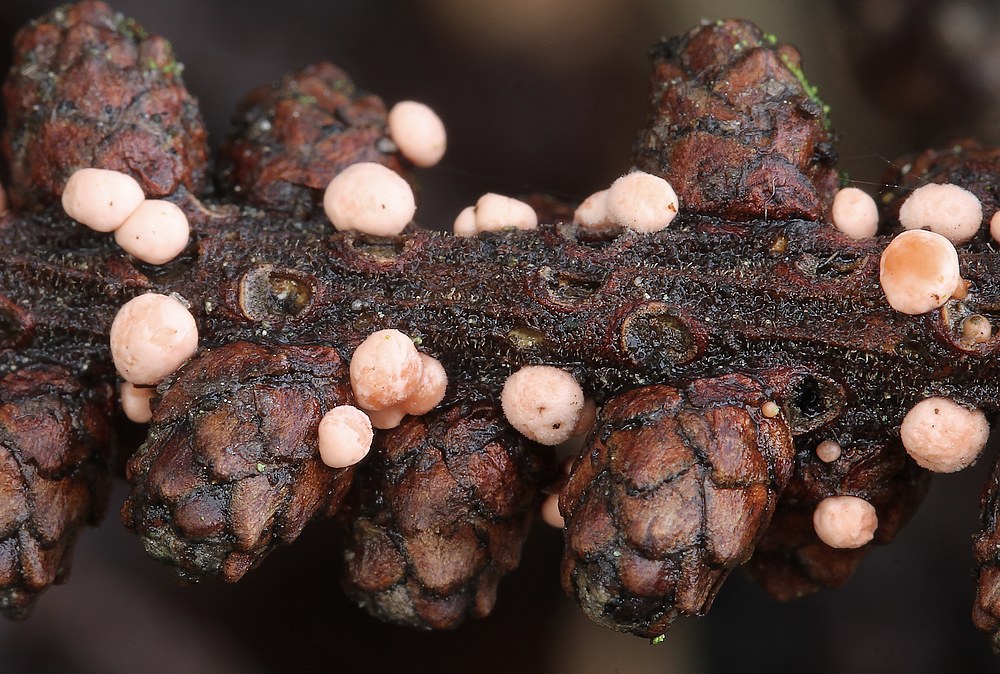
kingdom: Fungi
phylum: Ascomycota
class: Sordariomycetes
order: Hypocreales
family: Nectriaceae
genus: Nectria
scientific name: Nectria
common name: cinnobersvamp
